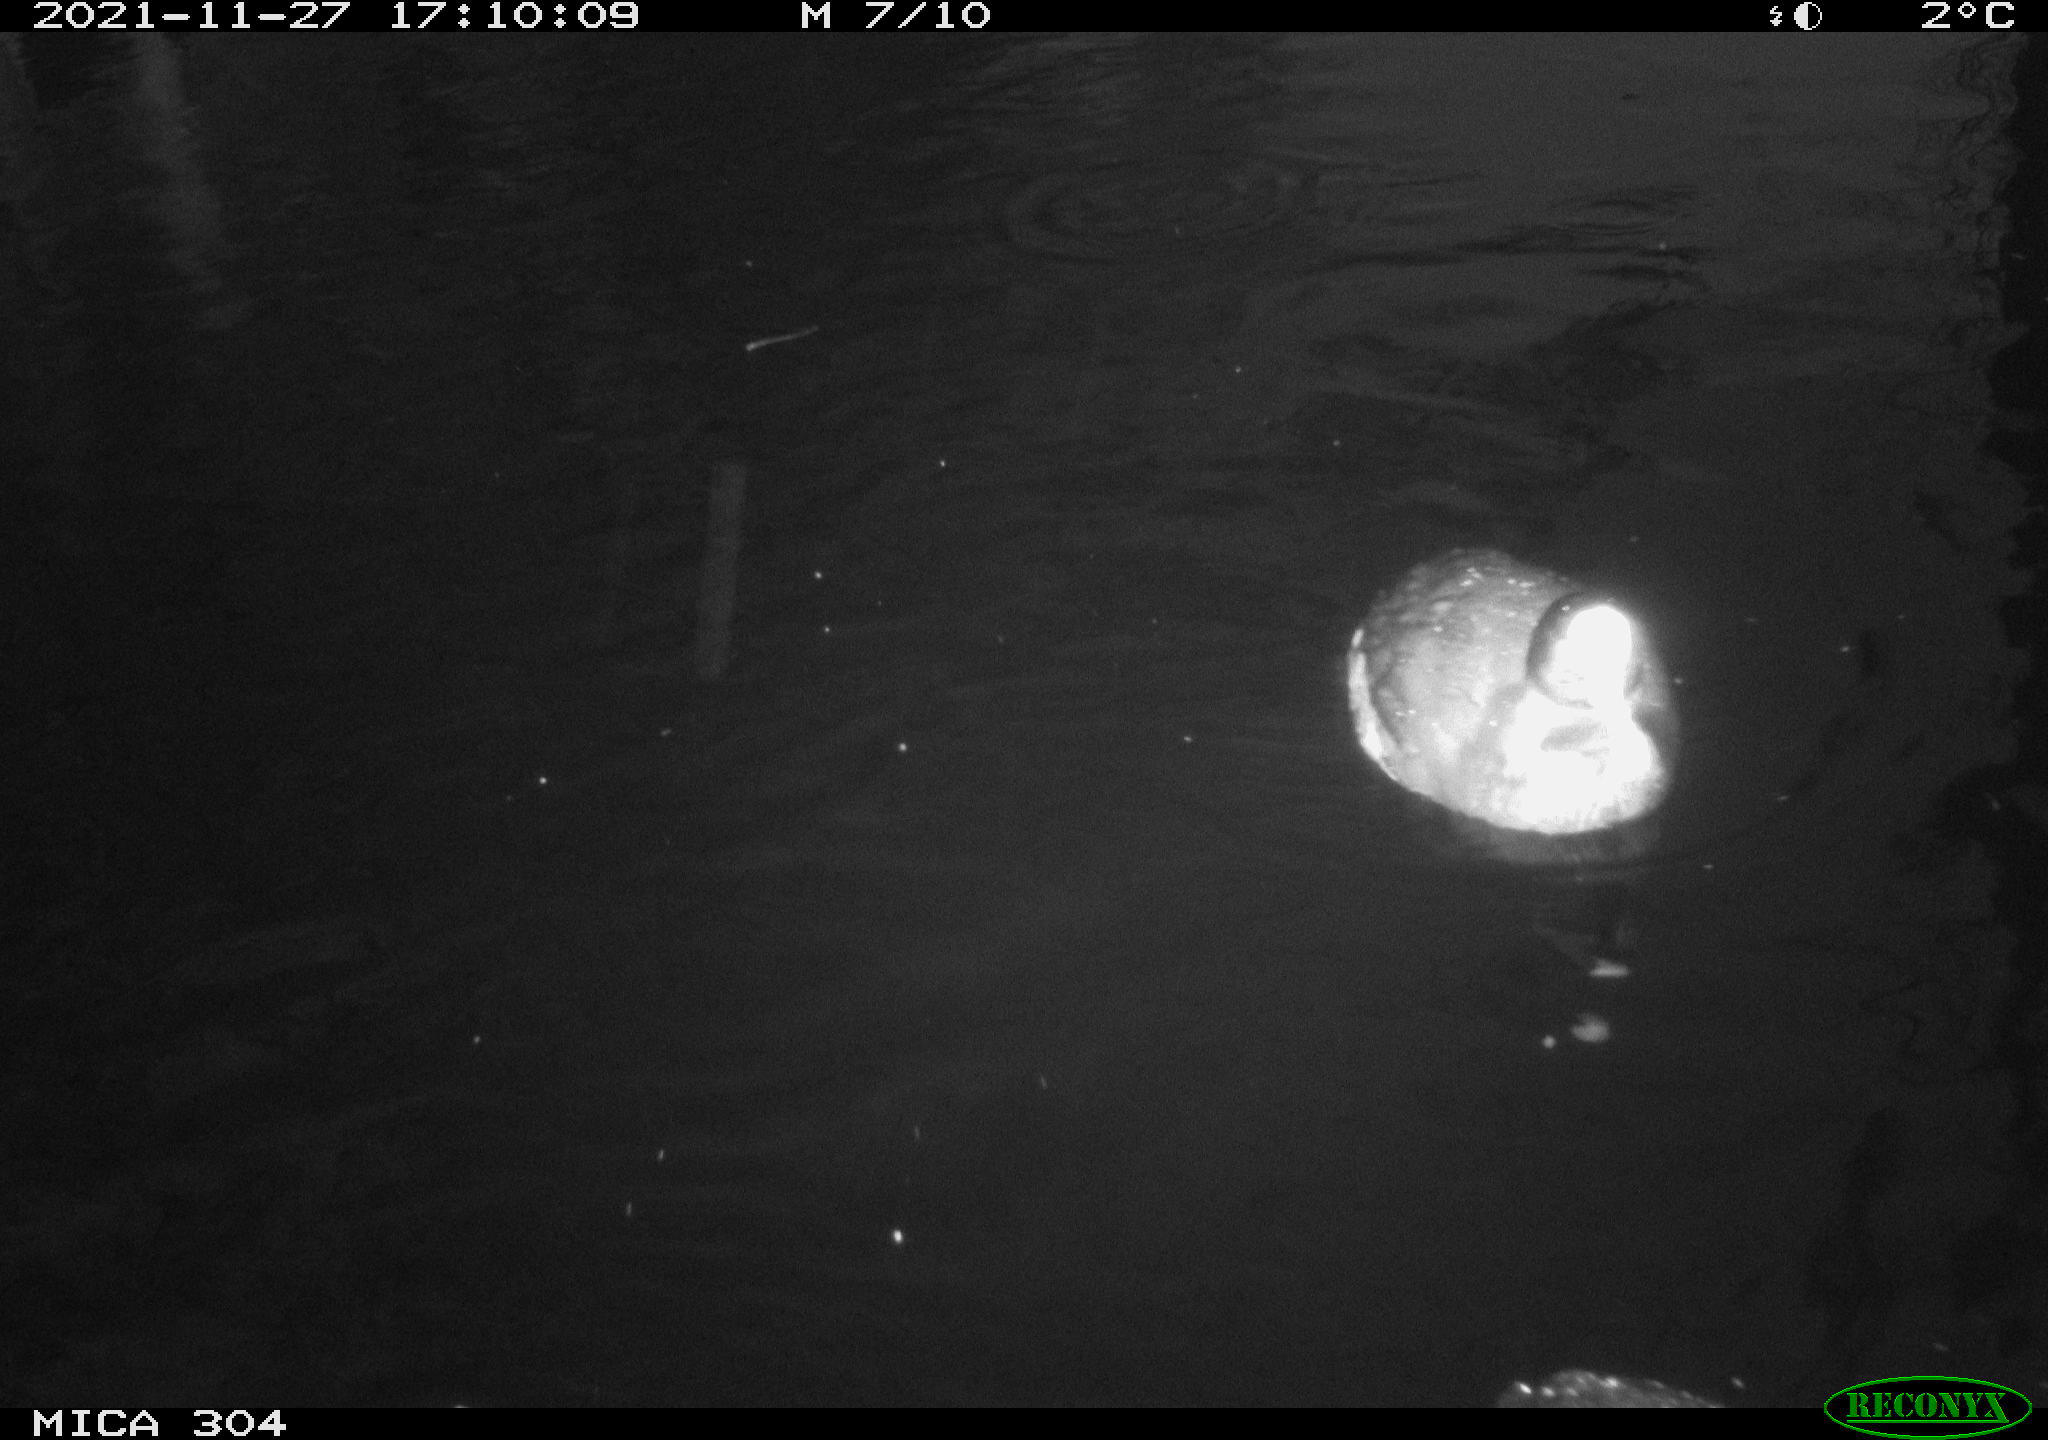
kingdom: Animalia
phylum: Chordata
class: Aves
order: Gruiformes
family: Rallidae
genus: Fulica
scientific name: Fulica atra
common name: Eurasian coot
